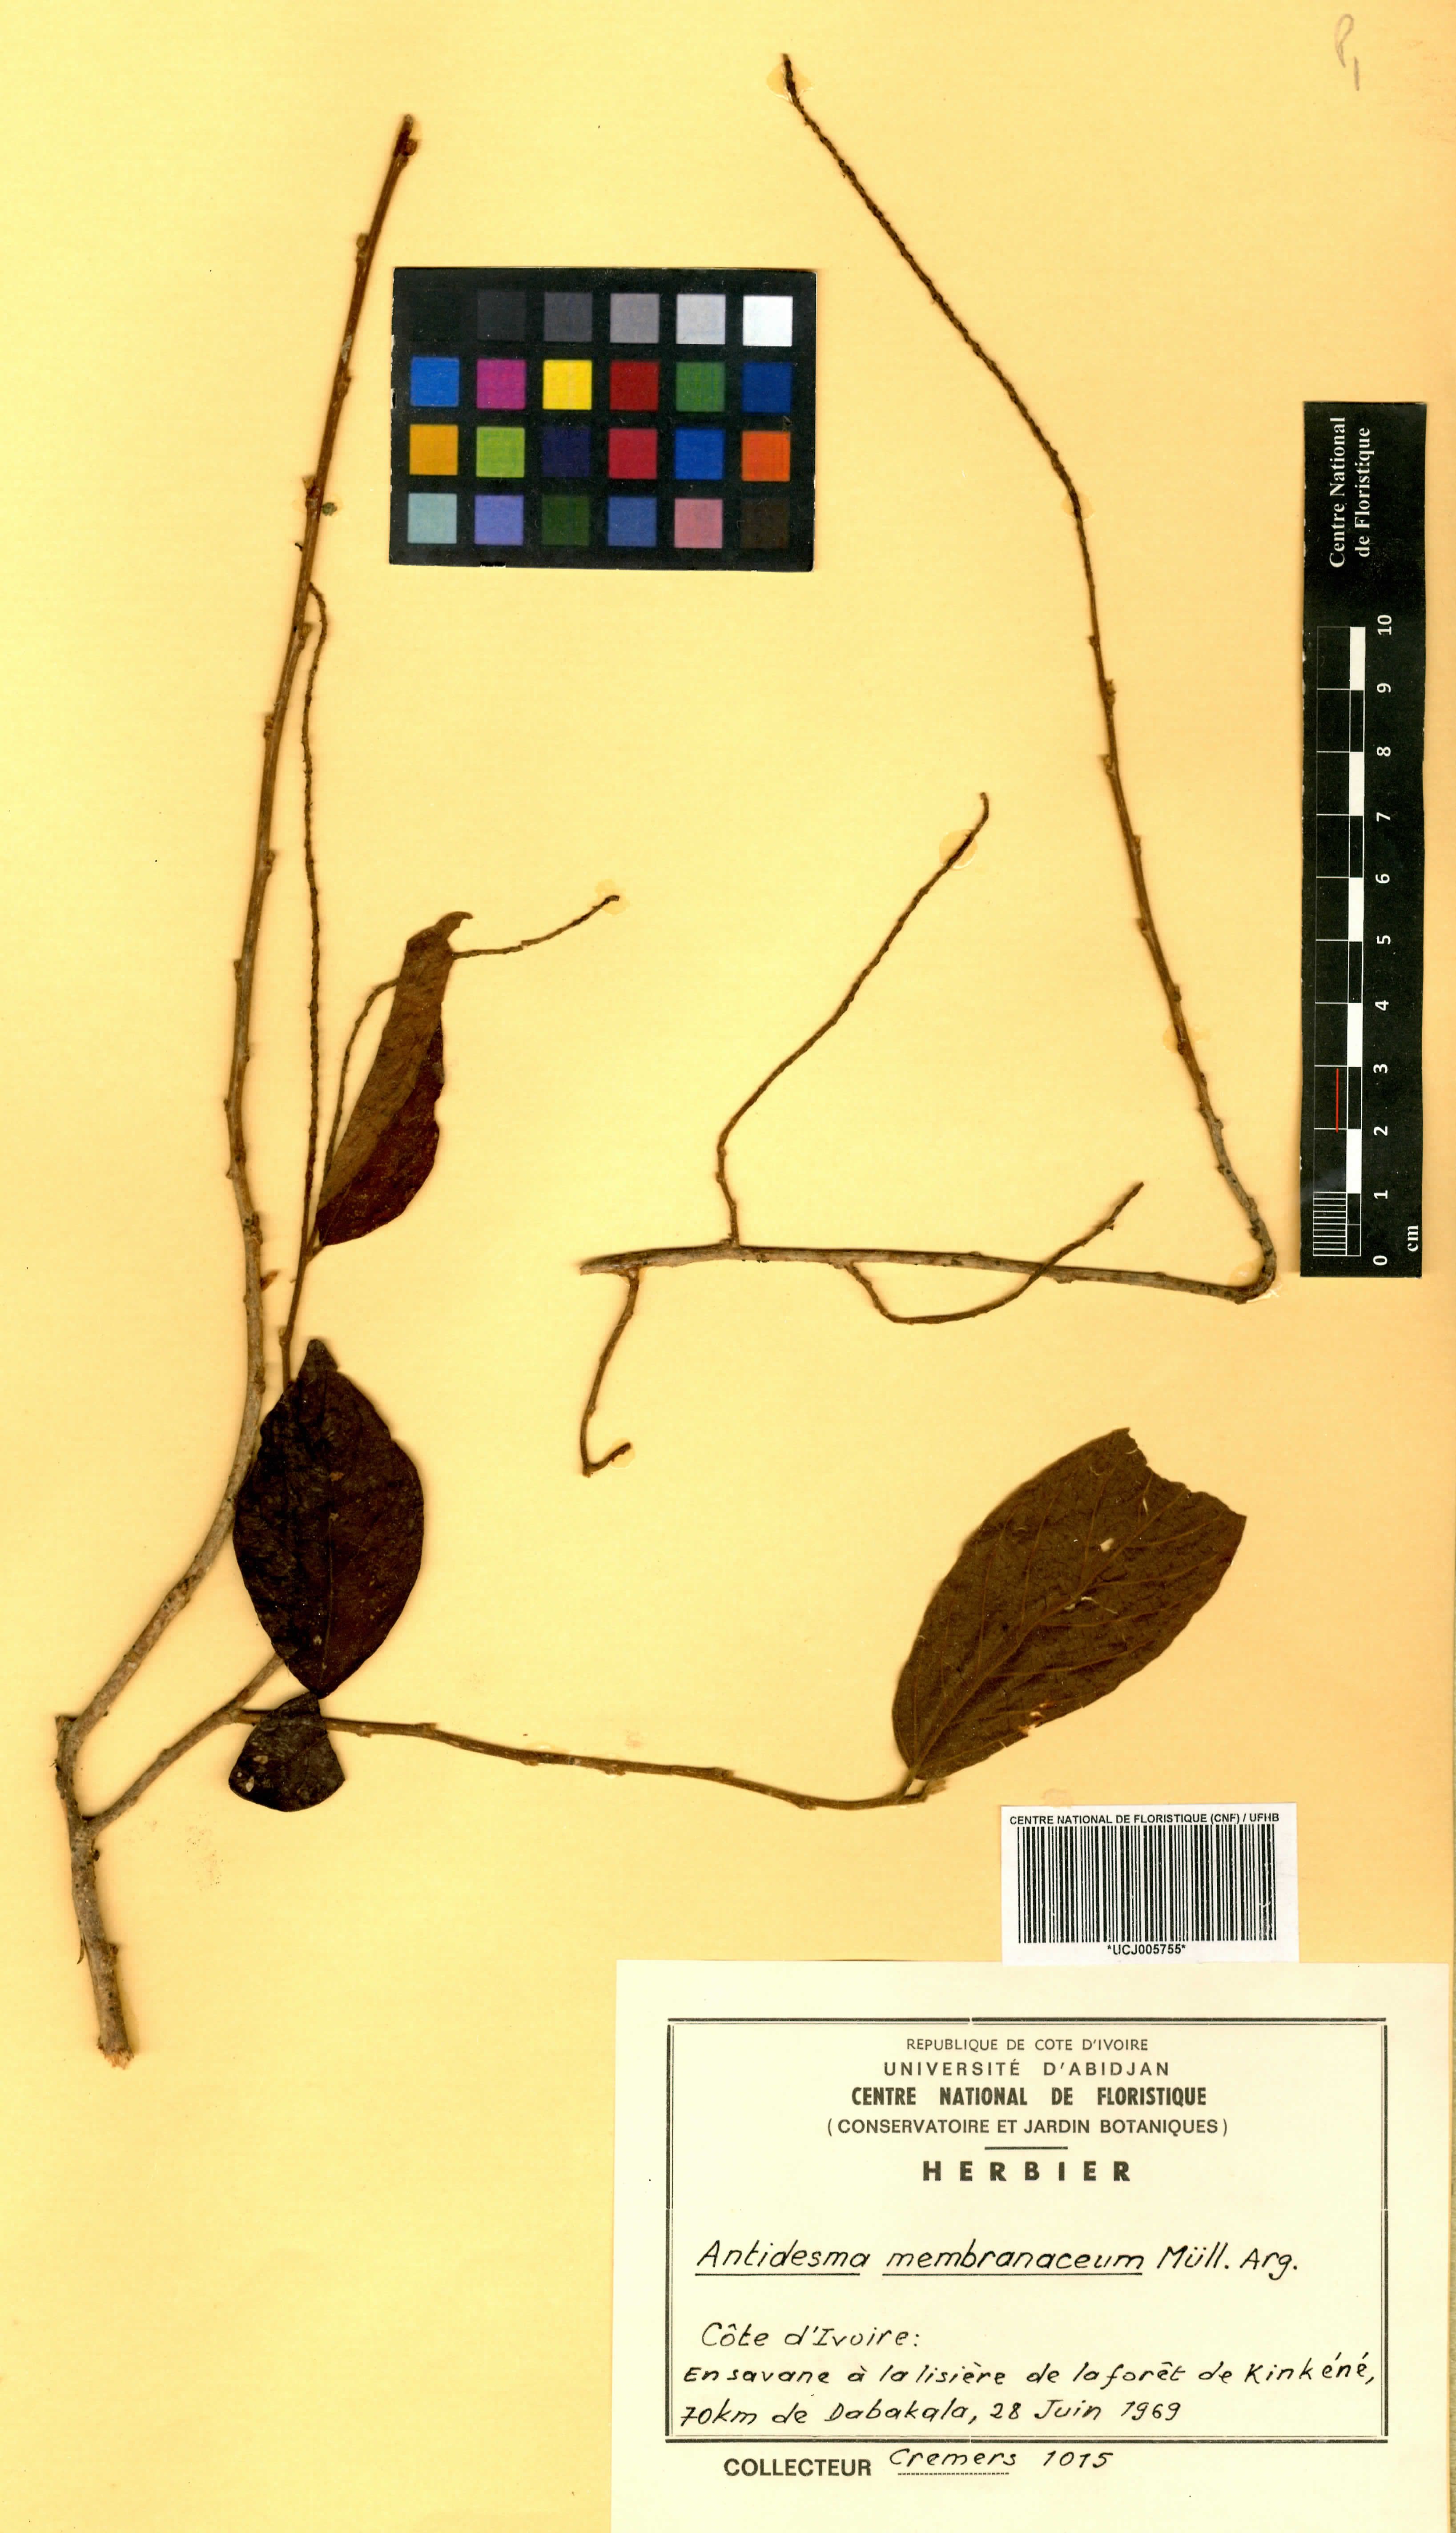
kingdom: Plantae
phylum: Tracheophyta
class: Magnoliopsida
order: Malpighiales
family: Phyllanthaceae
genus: Antidesma
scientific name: Antidesma membranaceum
